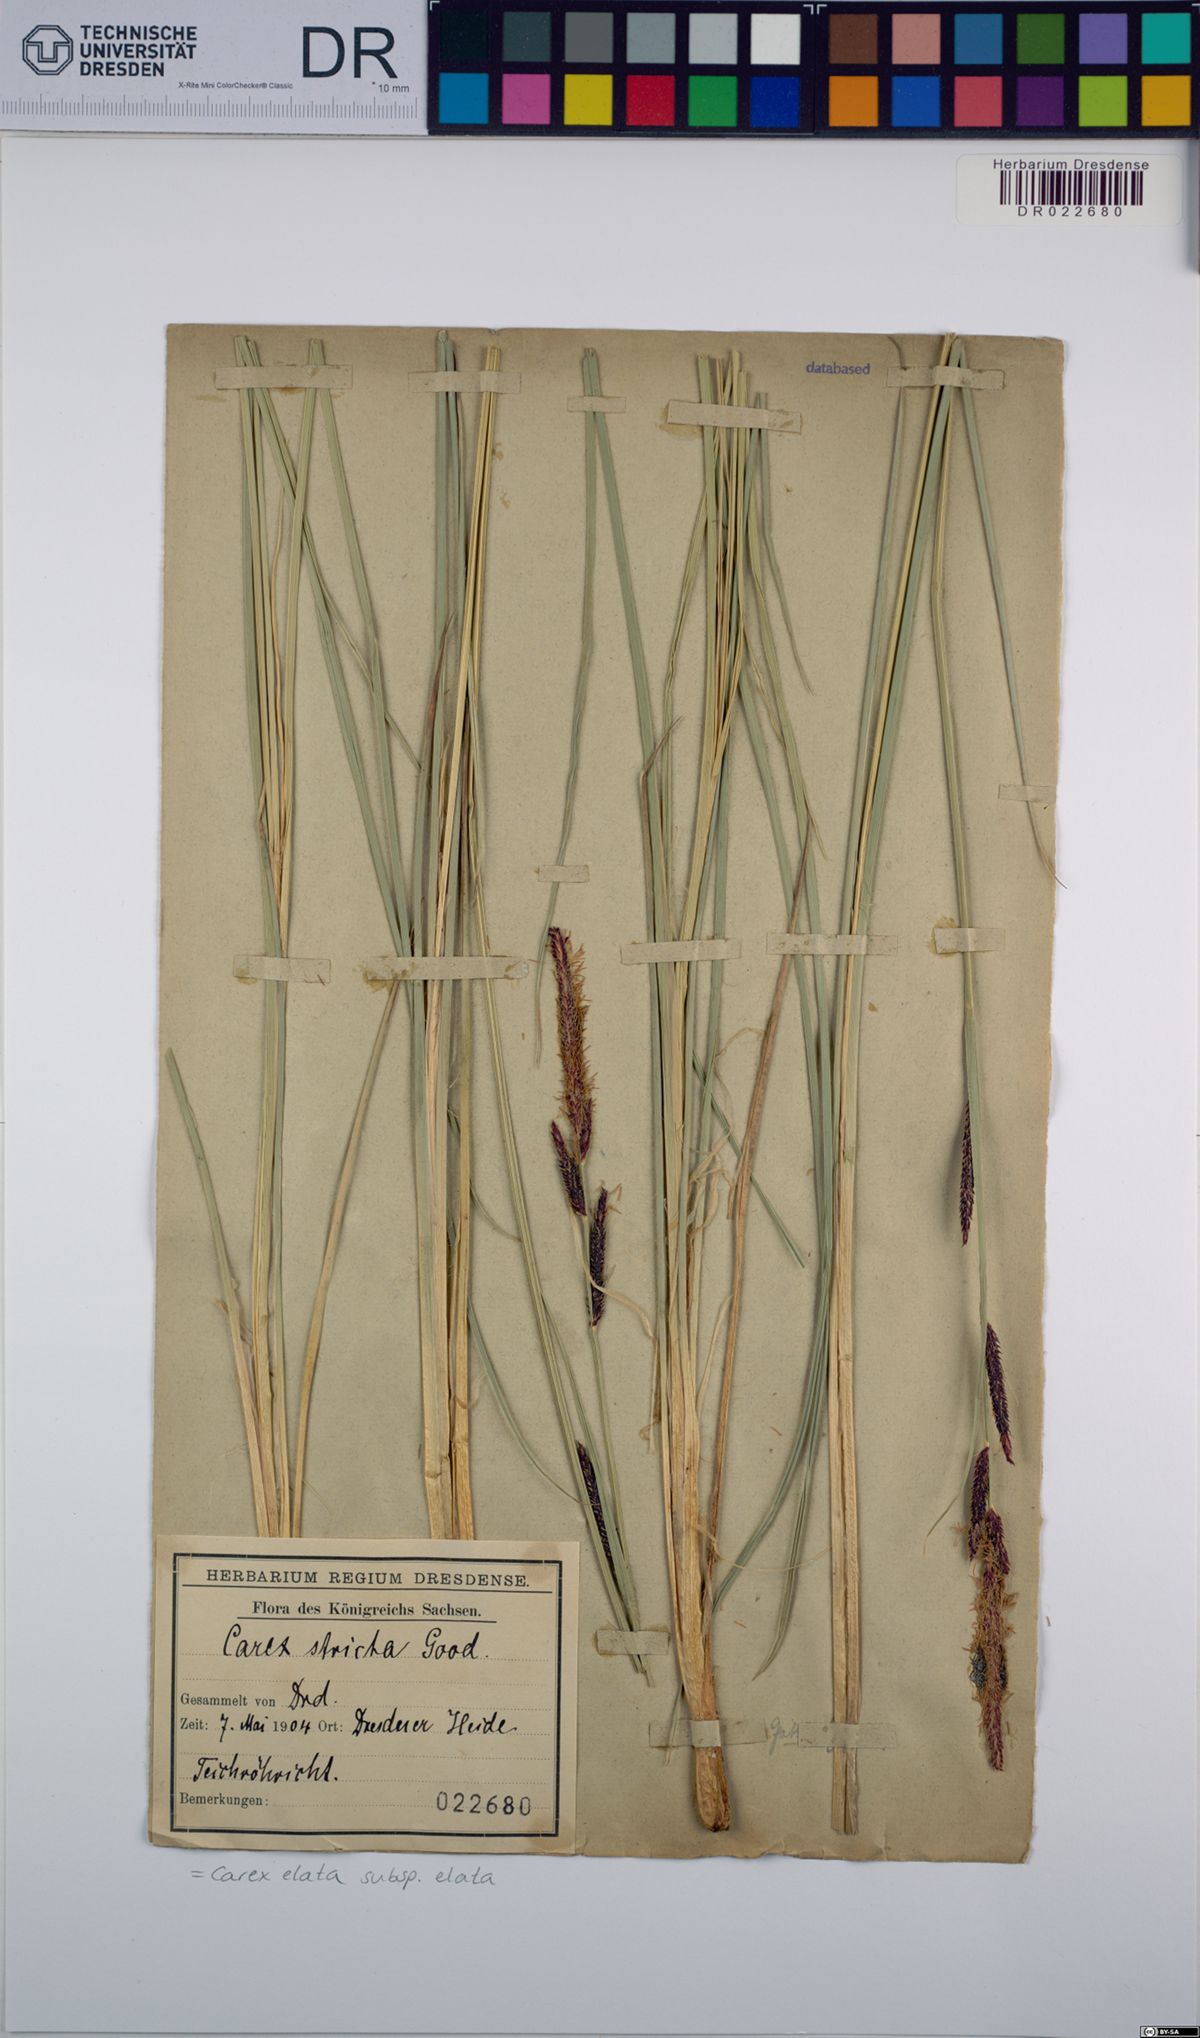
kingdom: Plantae
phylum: Tracheophyta
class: Liliopsida
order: Poales
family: Cyperaceae
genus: Carex
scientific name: Carex elata
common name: Tufted sedge
